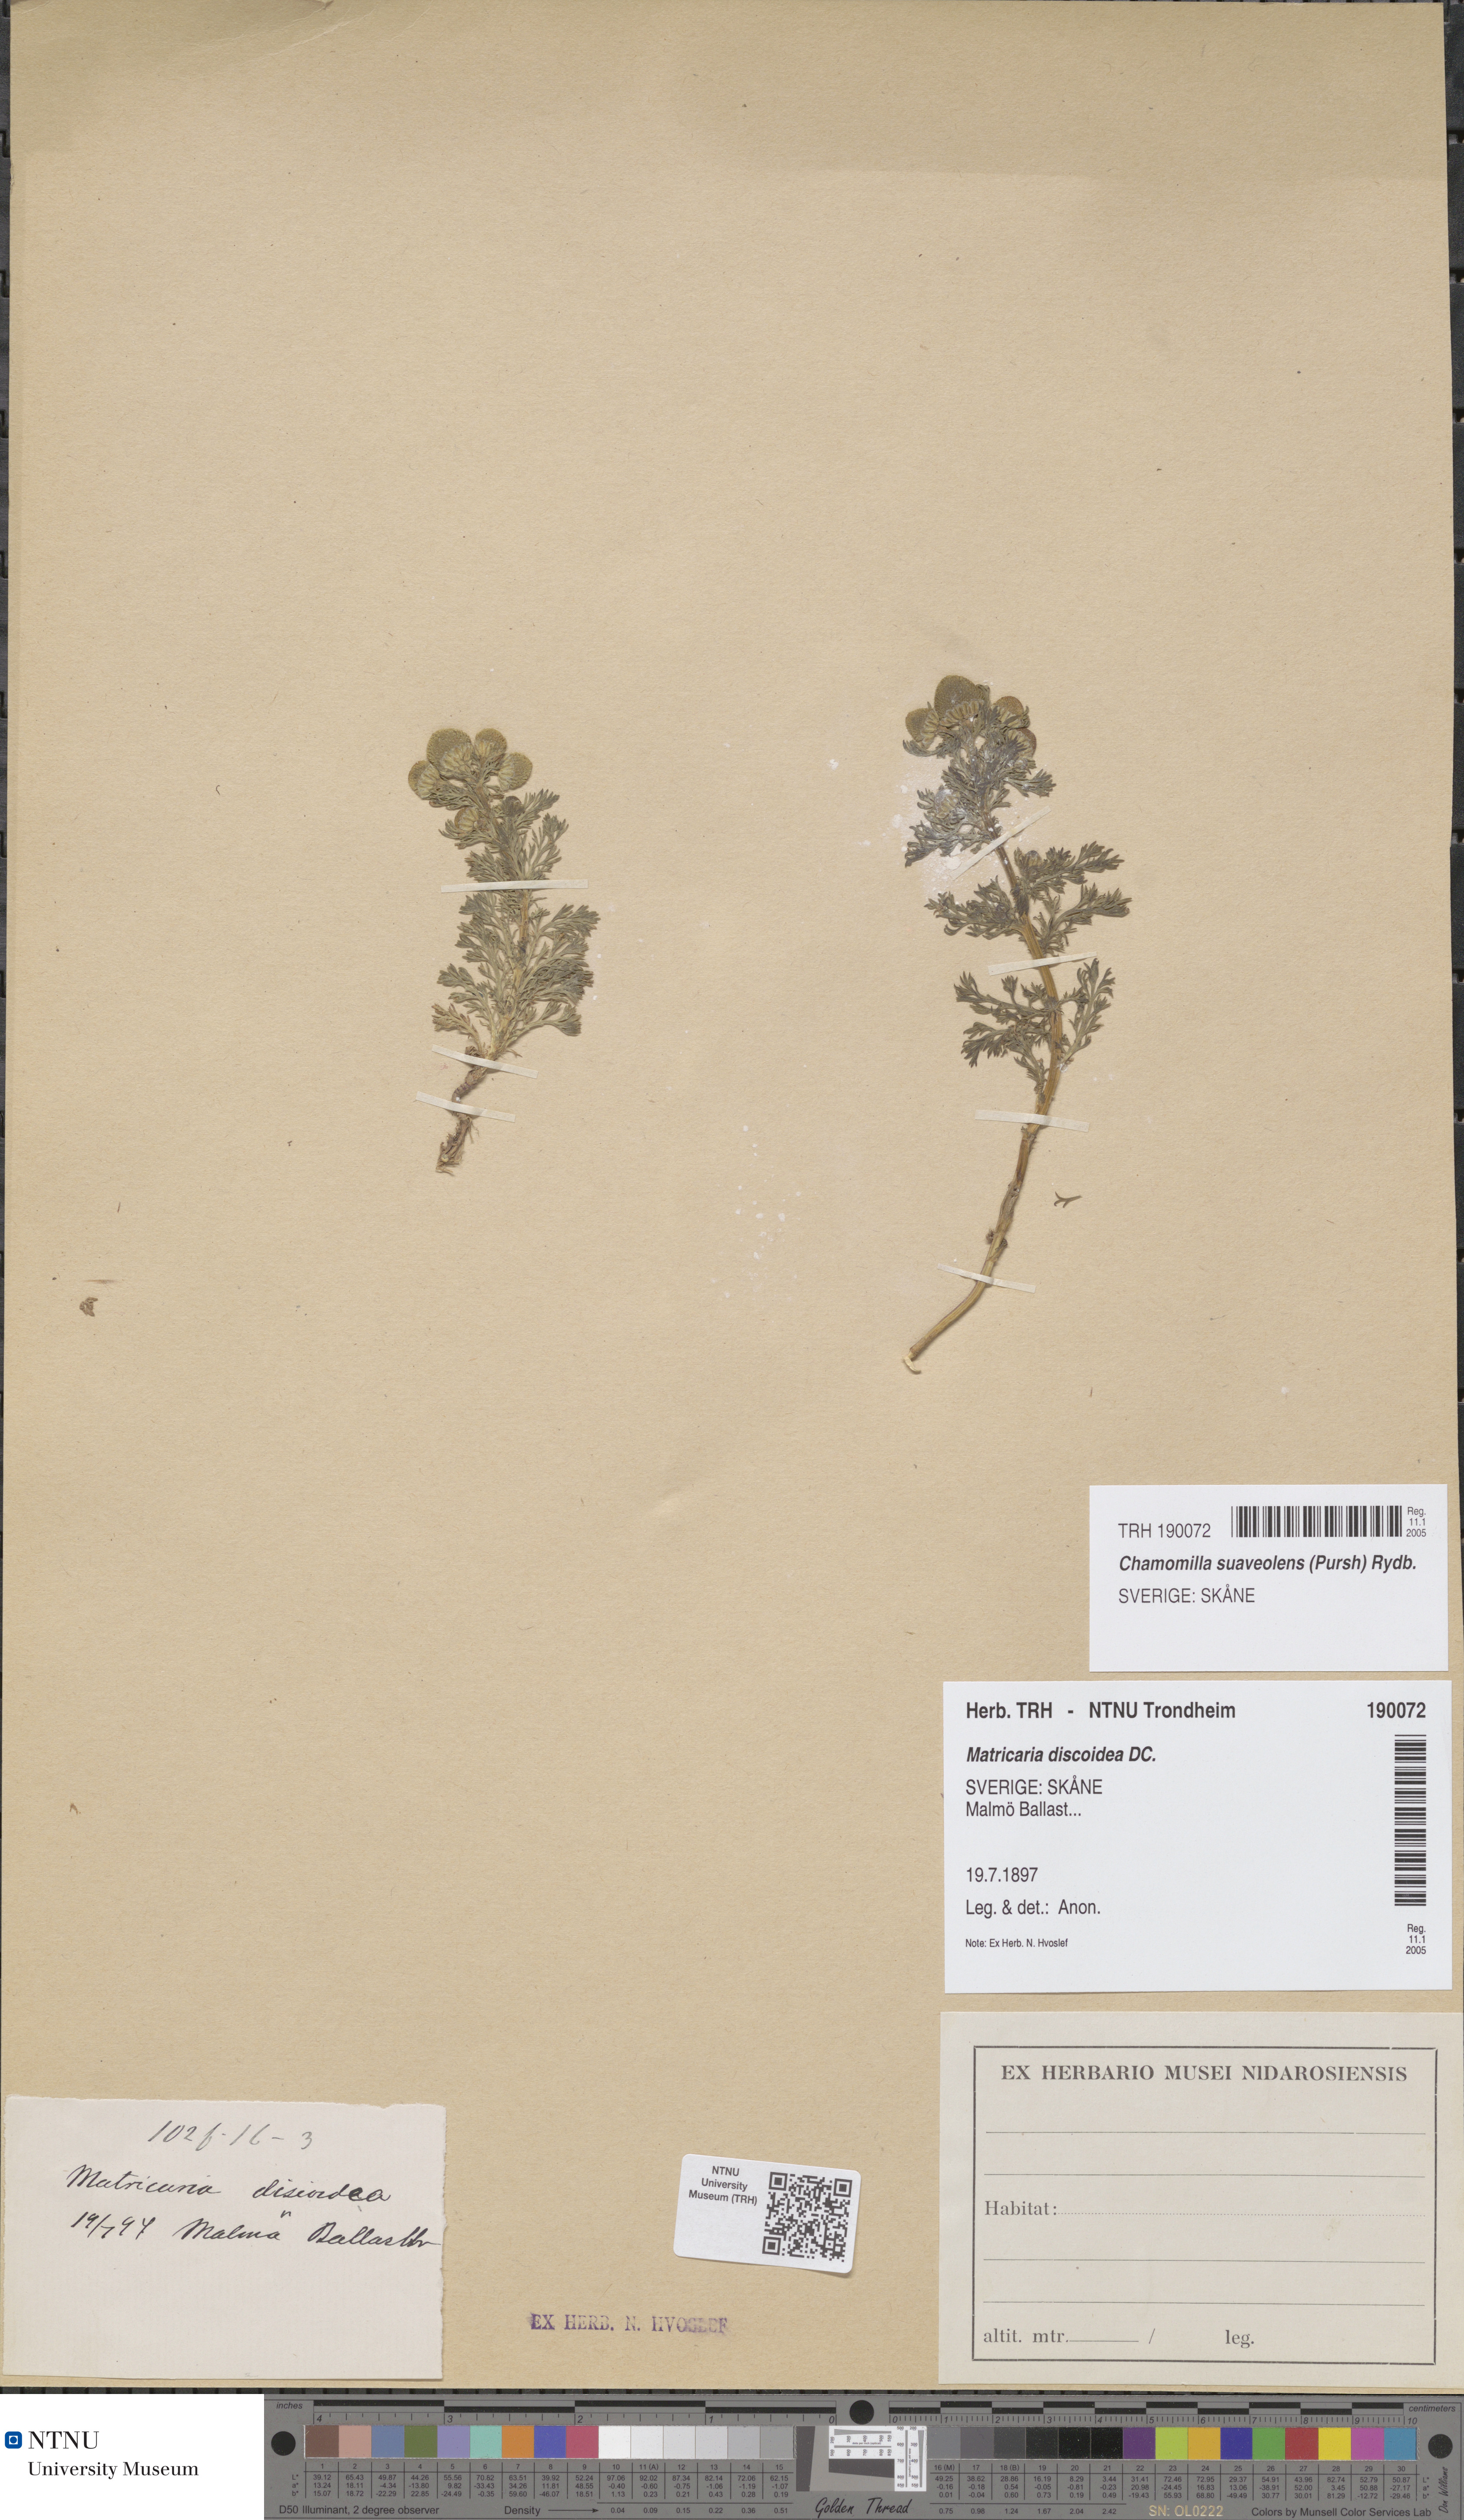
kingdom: Plantae
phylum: Tracheophyta
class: Magnoliopsida
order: Asterales
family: Asteraceae
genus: Matricaria
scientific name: Matricaria discoidea
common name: Disc mayweed
